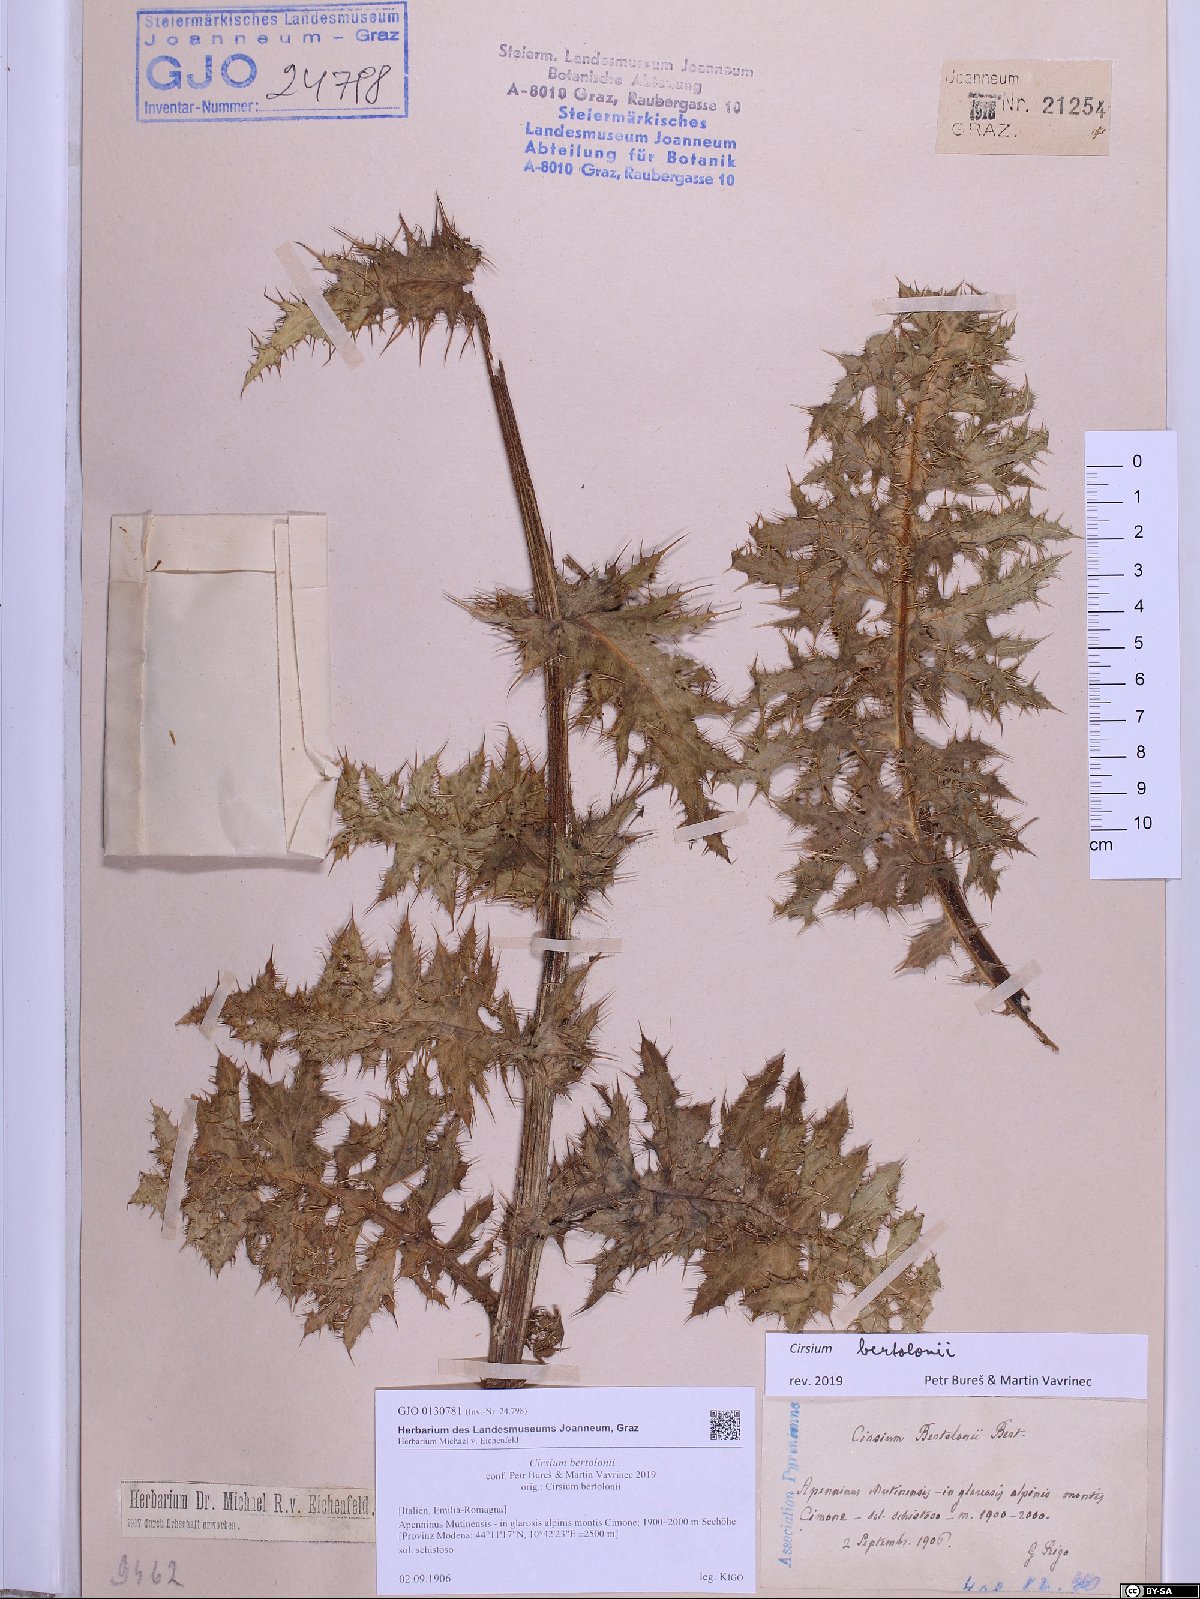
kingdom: Plantae
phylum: Tracheophyta
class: Magnoliopsida
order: Asterales
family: Asteraceae
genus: Cirsium
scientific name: Cirsium bertolonii
